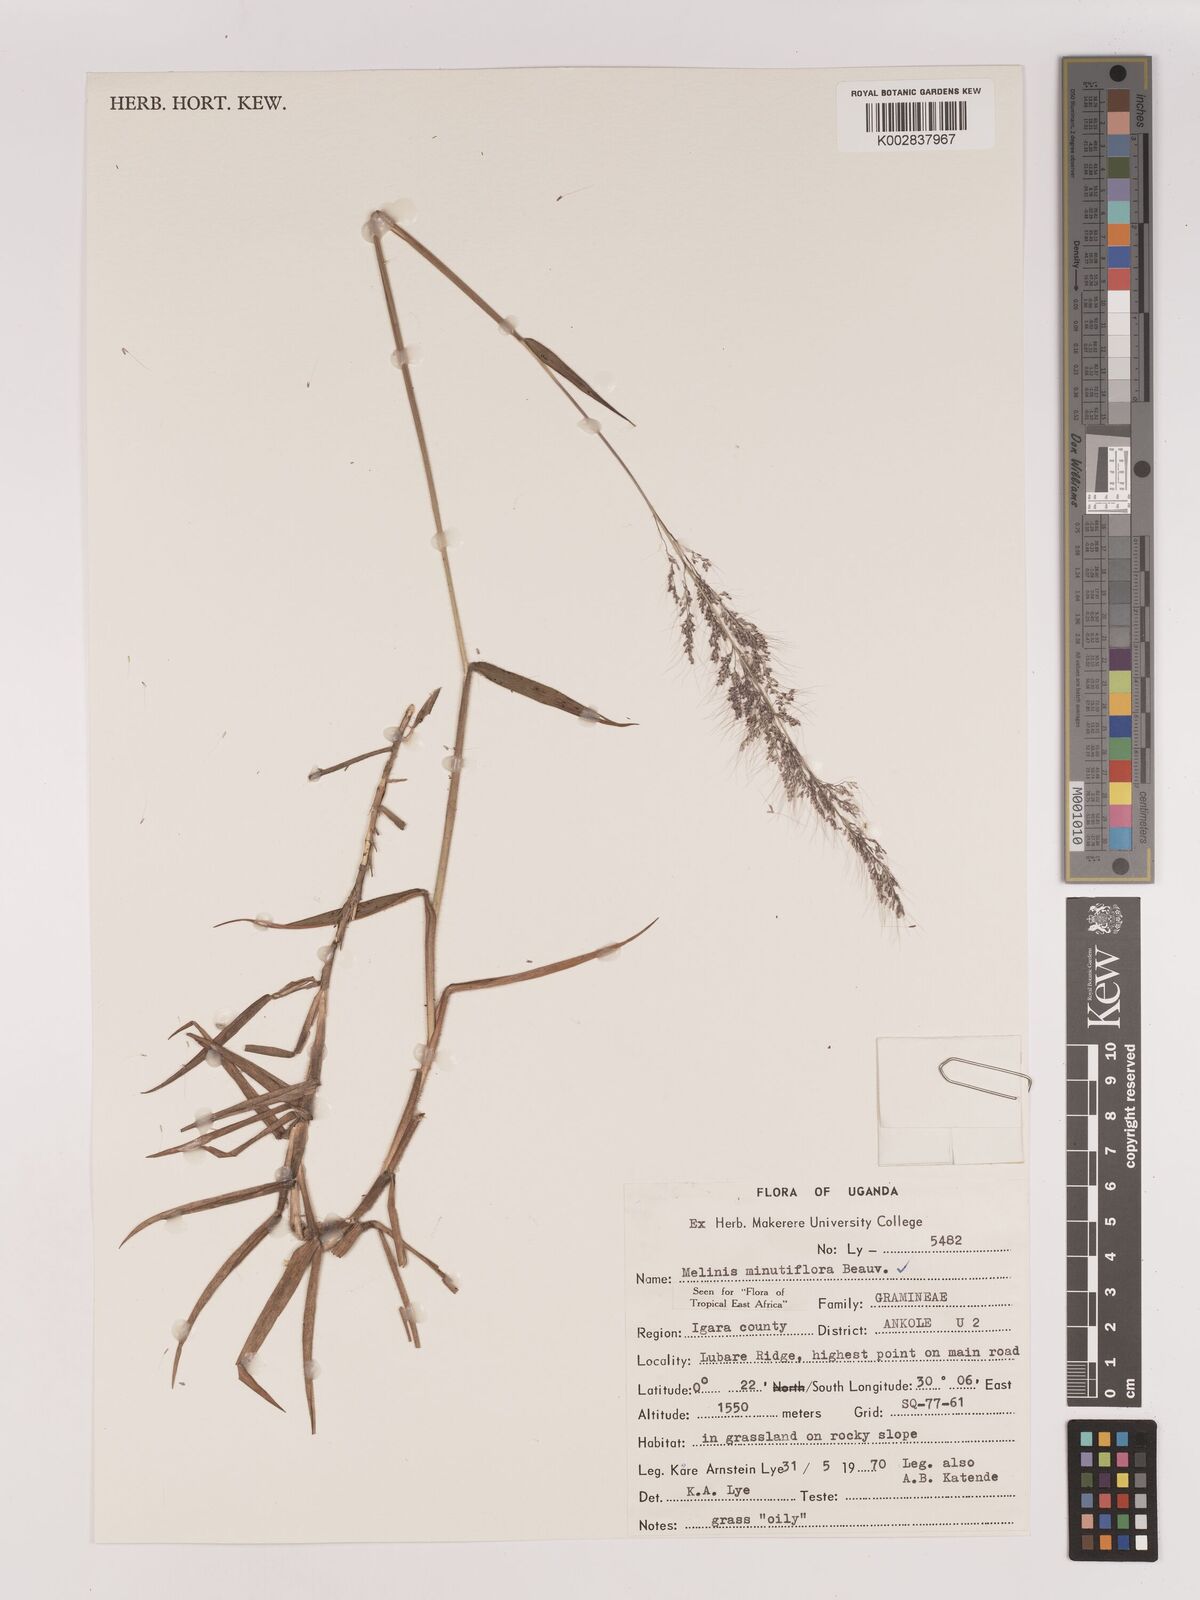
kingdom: Plantae
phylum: Tracheophyta
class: Liliopsida
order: Poales
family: Poaceae
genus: Melinis
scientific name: Melinis minutiflora
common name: Molassesgrass
